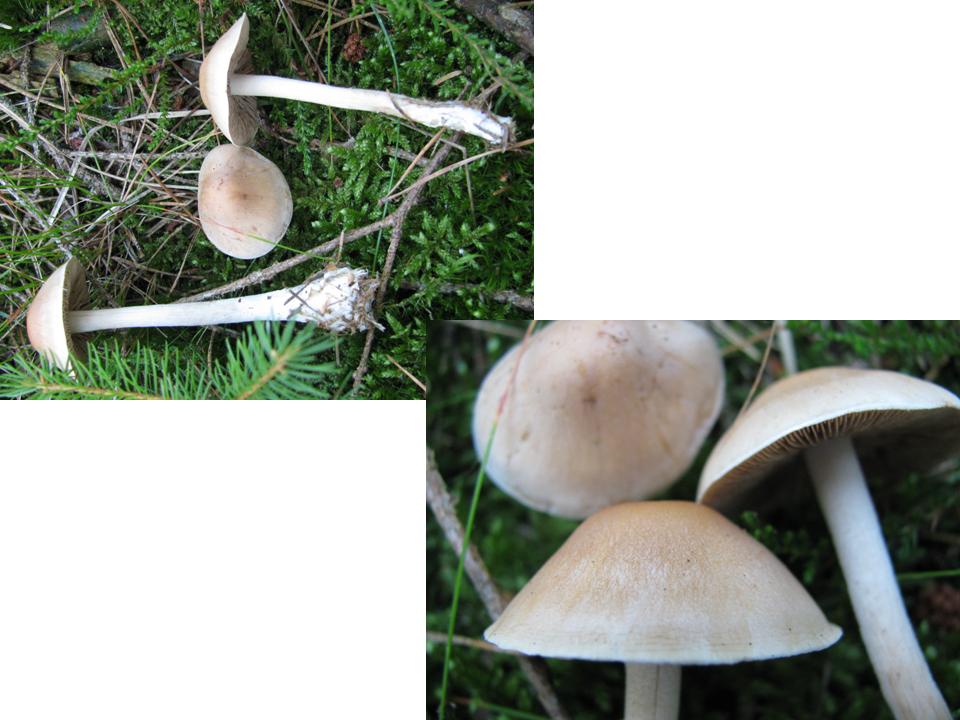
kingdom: Fungi
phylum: Basidiomycota
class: Agaricomycetes
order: Agaricales
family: Hymenogastraceae
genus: Hebeloma
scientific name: Hebeloma incarnatulum
